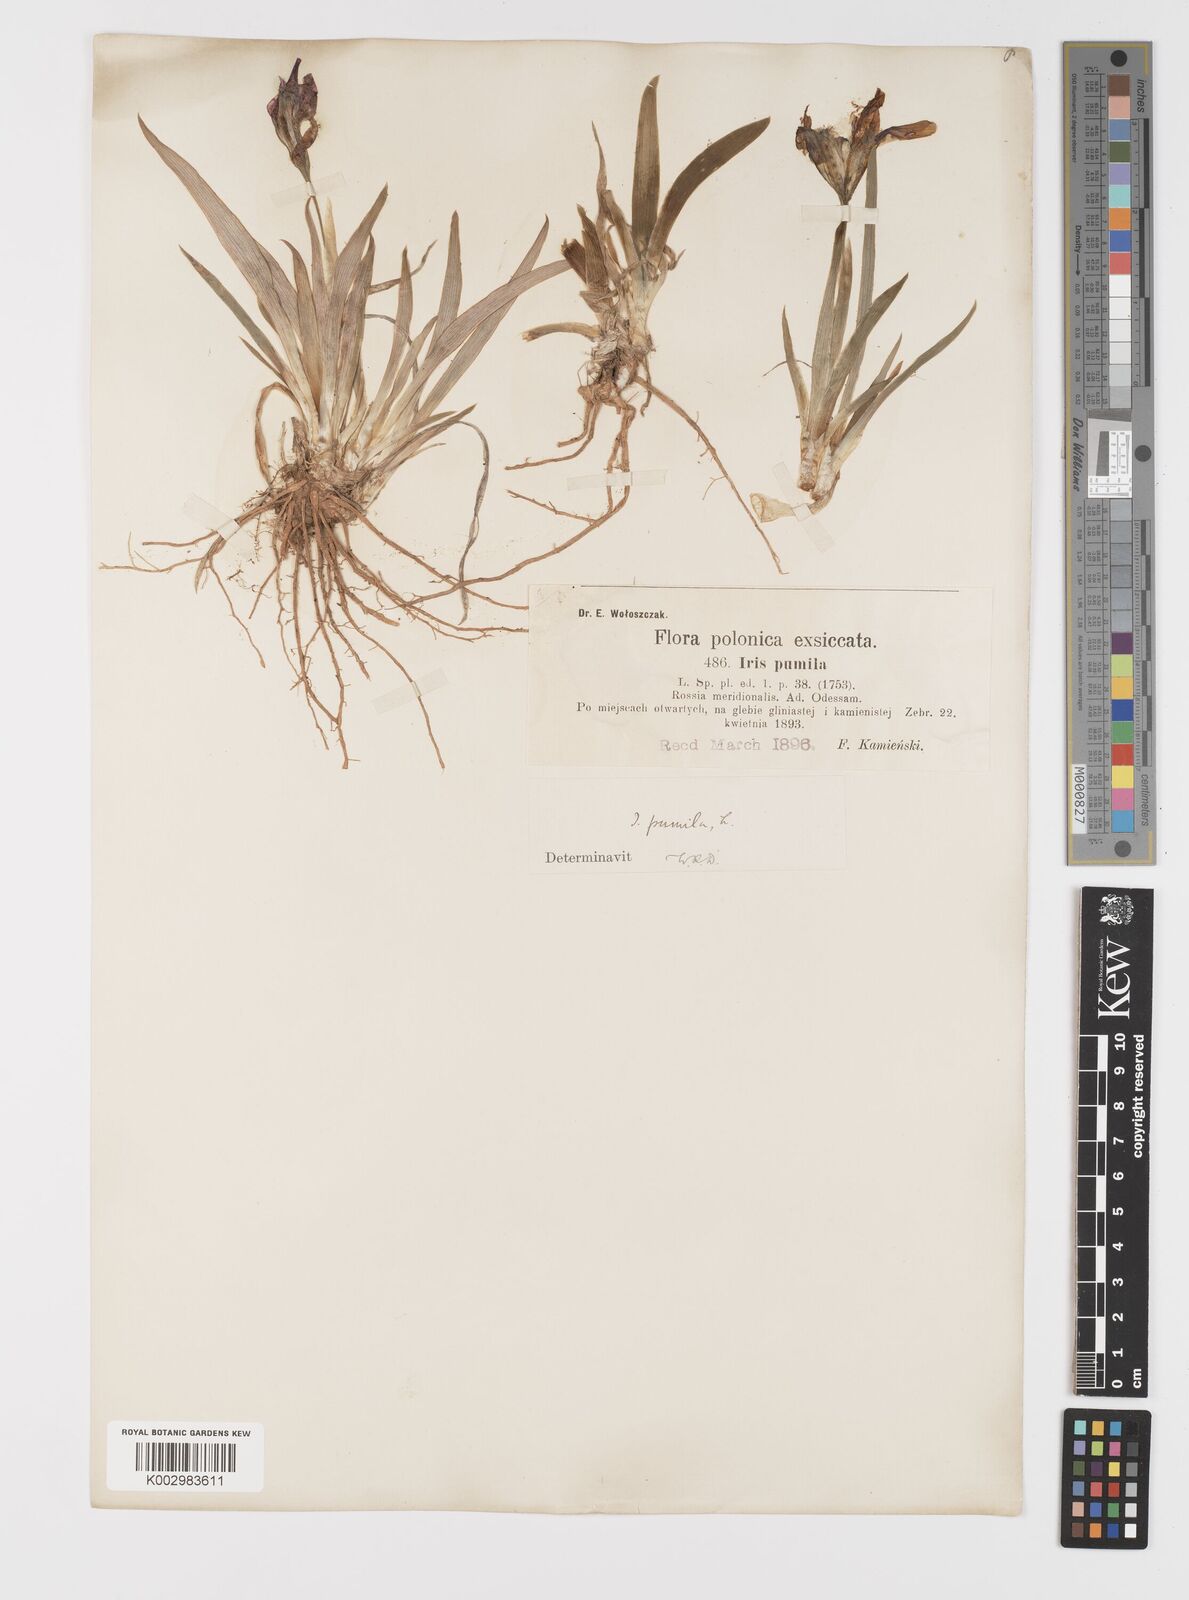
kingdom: Plantae
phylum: Tracheophyta
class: Liliopsida
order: Asparagales
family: Iridaceae
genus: Iris
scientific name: Iris pumila
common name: Dwarf iris
